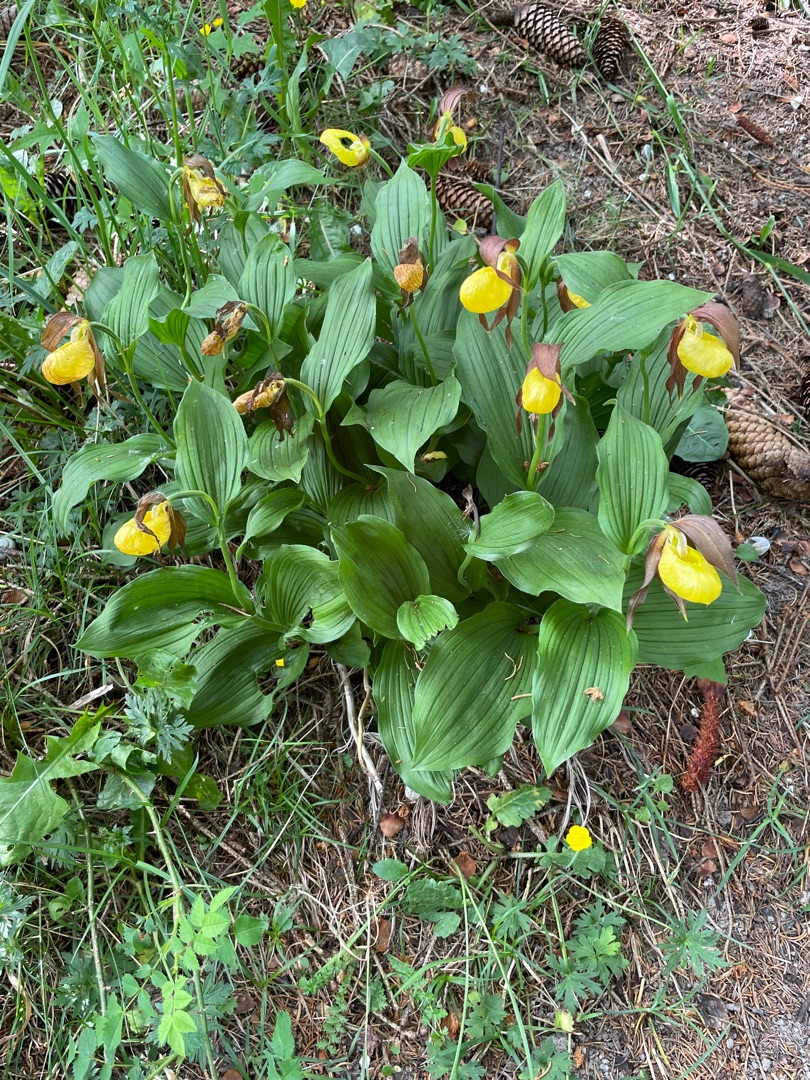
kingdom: Plantae
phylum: Tracheophyta
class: Liliopsida
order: Asparagales
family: Orchidaceae
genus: Cypripedium
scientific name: Cypripedium calceolus
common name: Fruesko
